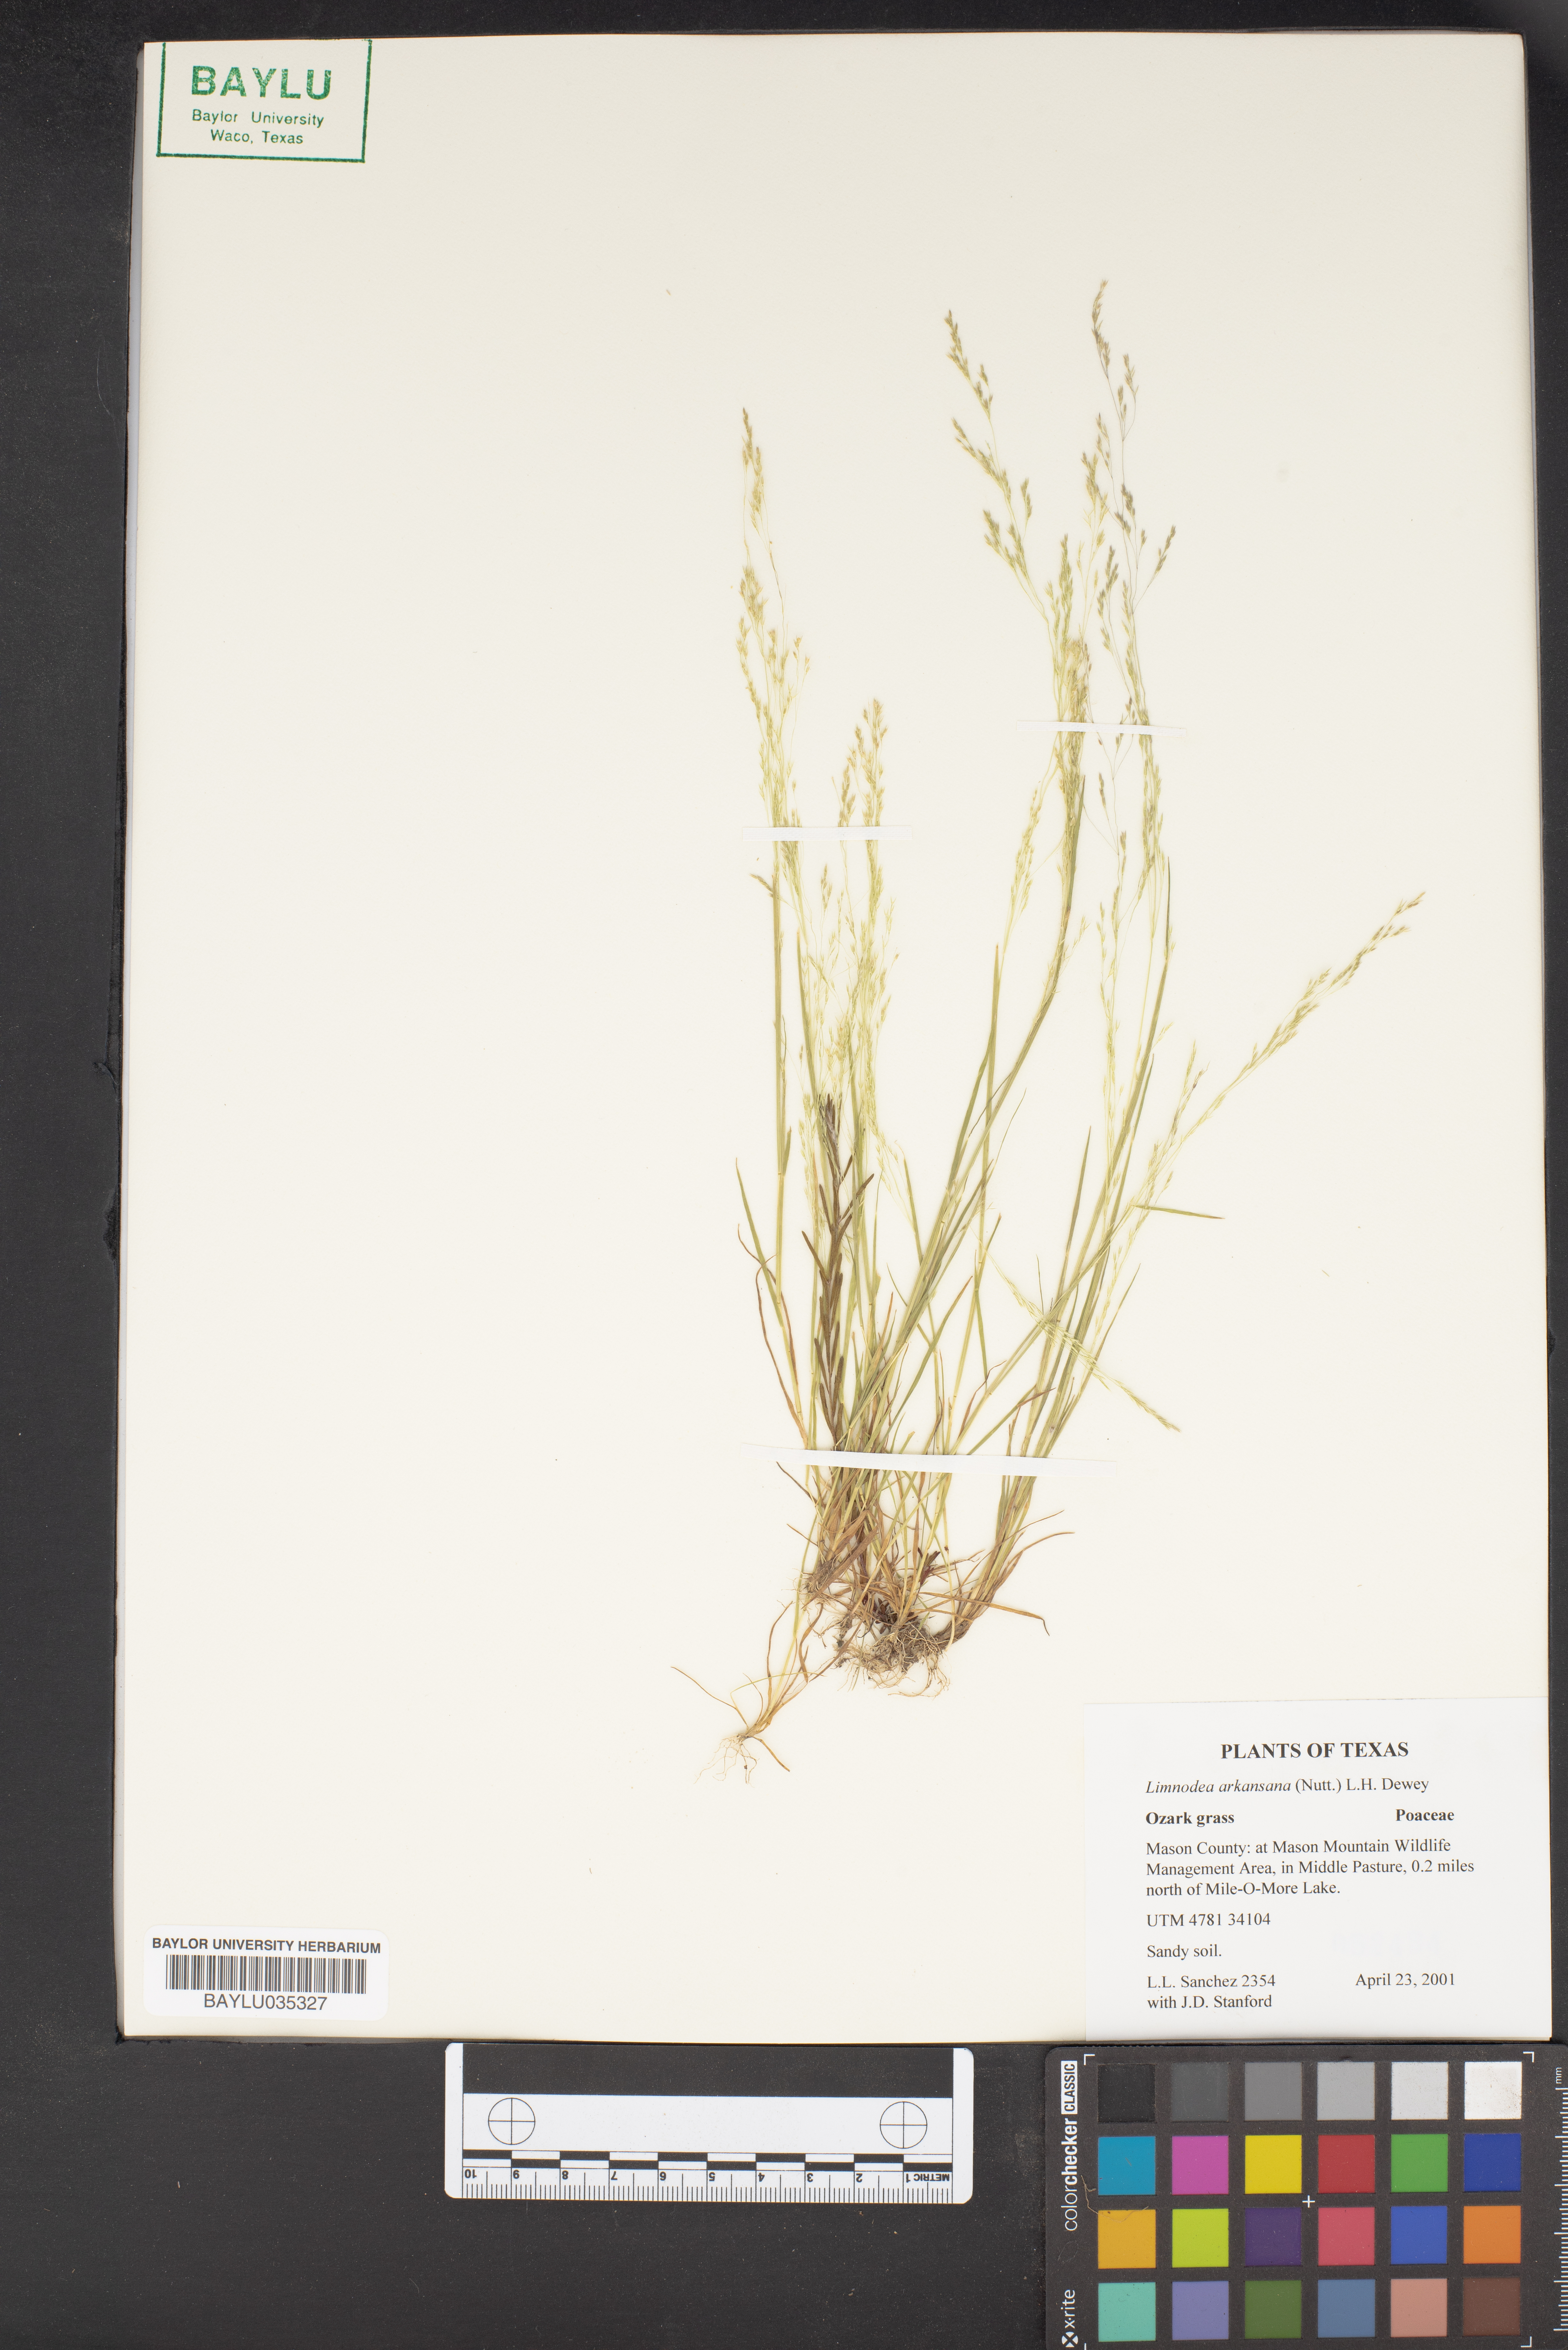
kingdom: Plantae
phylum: Tracheophyta
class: Liliopsida
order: Poales
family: Poaceae
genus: Limnodea
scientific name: Limnodea arkansana
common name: Ozark-grass
